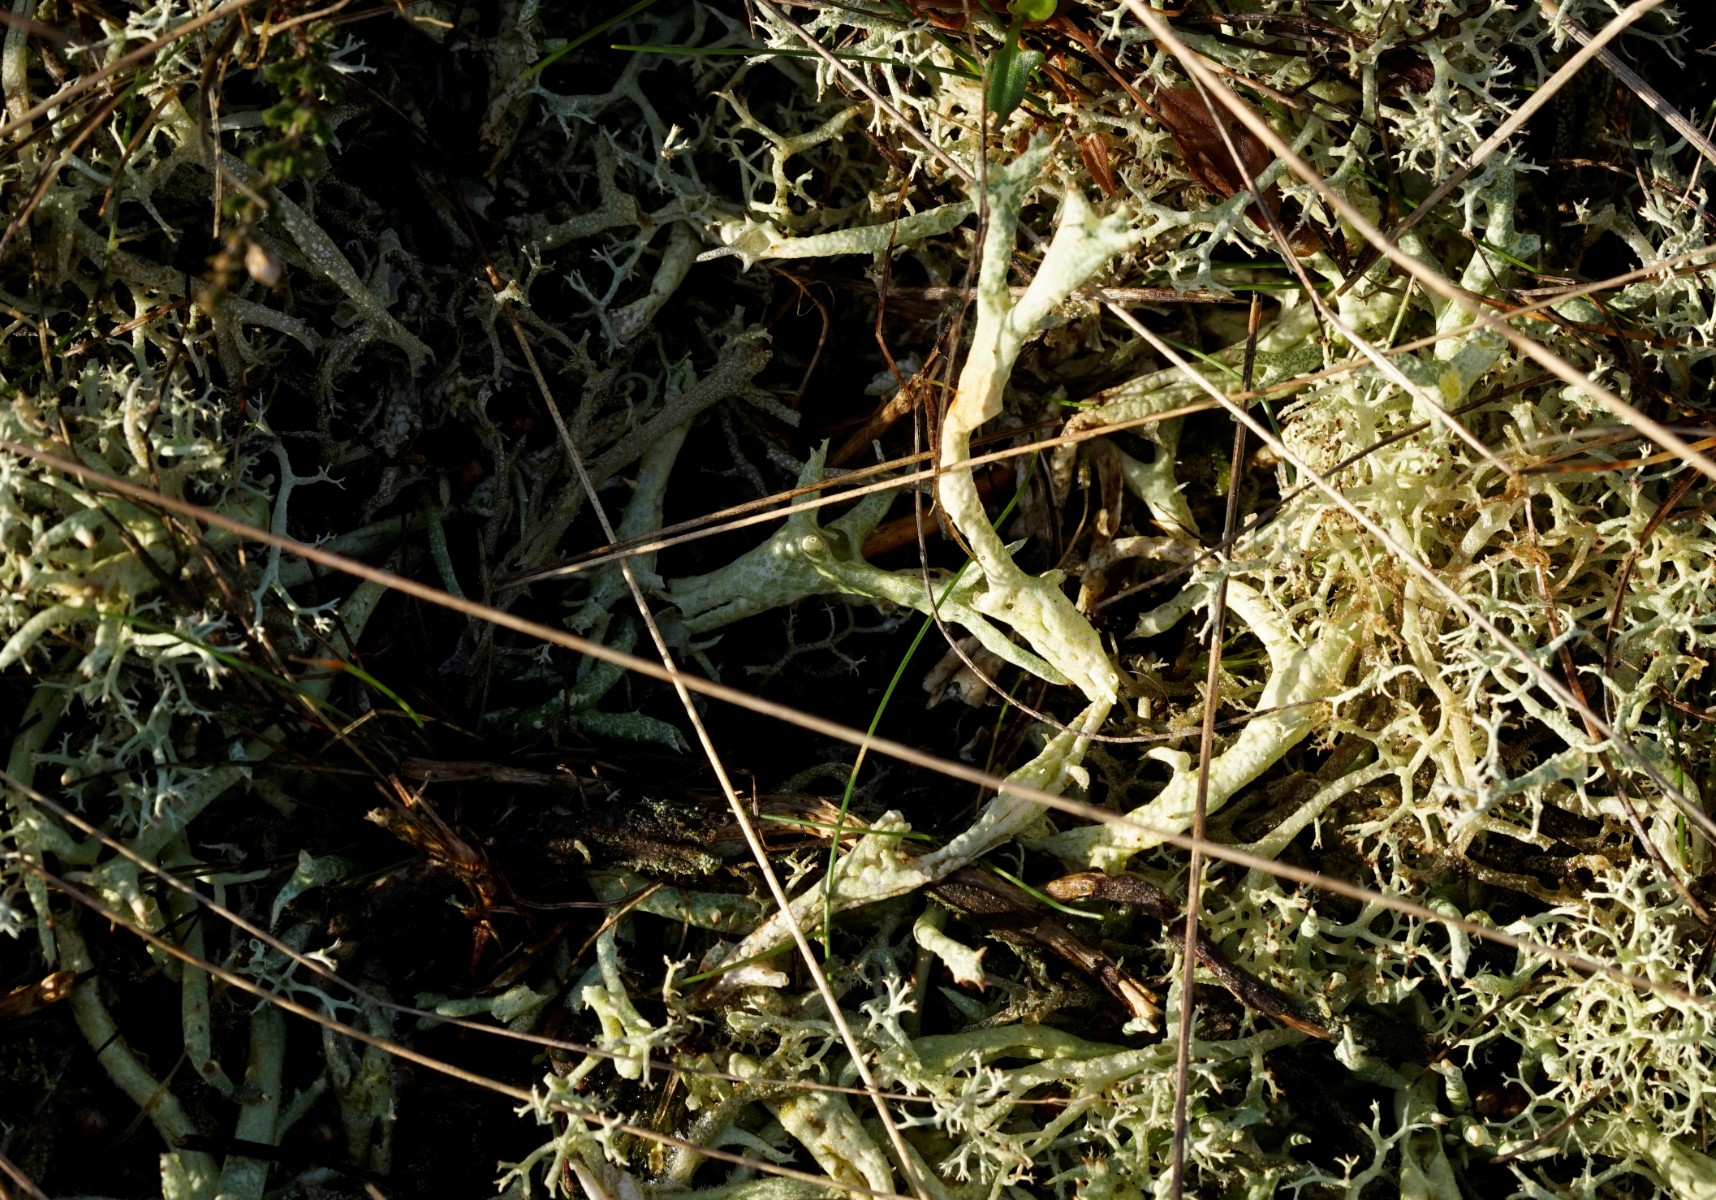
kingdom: Fungi
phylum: Ascomycota
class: Lecanoromycetes
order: Lecanorales
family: Cladoniaceae
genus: Cladonia
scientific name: Cladonia uncialis
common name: pigget bægerlav
